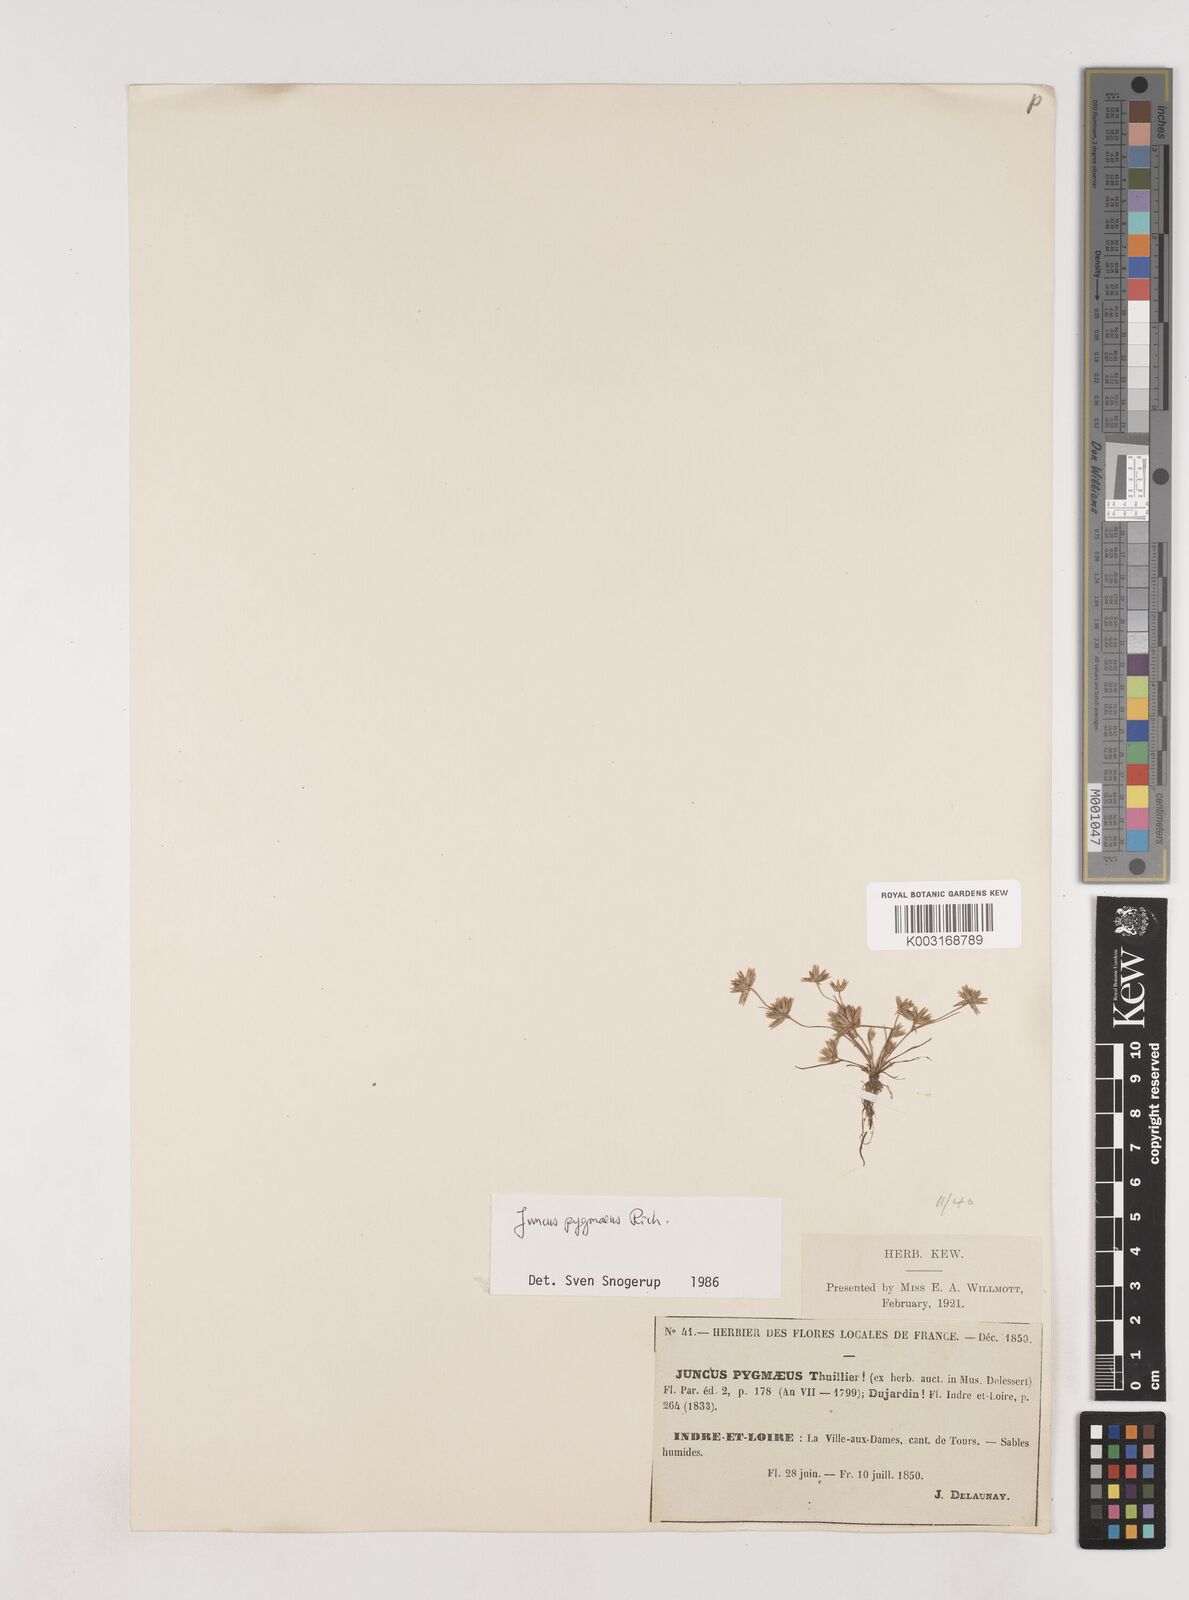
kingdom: Plantae
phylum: Tracheophyta
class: Liliopsida
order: Poales
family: Juncaceae
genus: Juncus
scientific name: Juncus pygmaeus
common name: Pigmy rush
